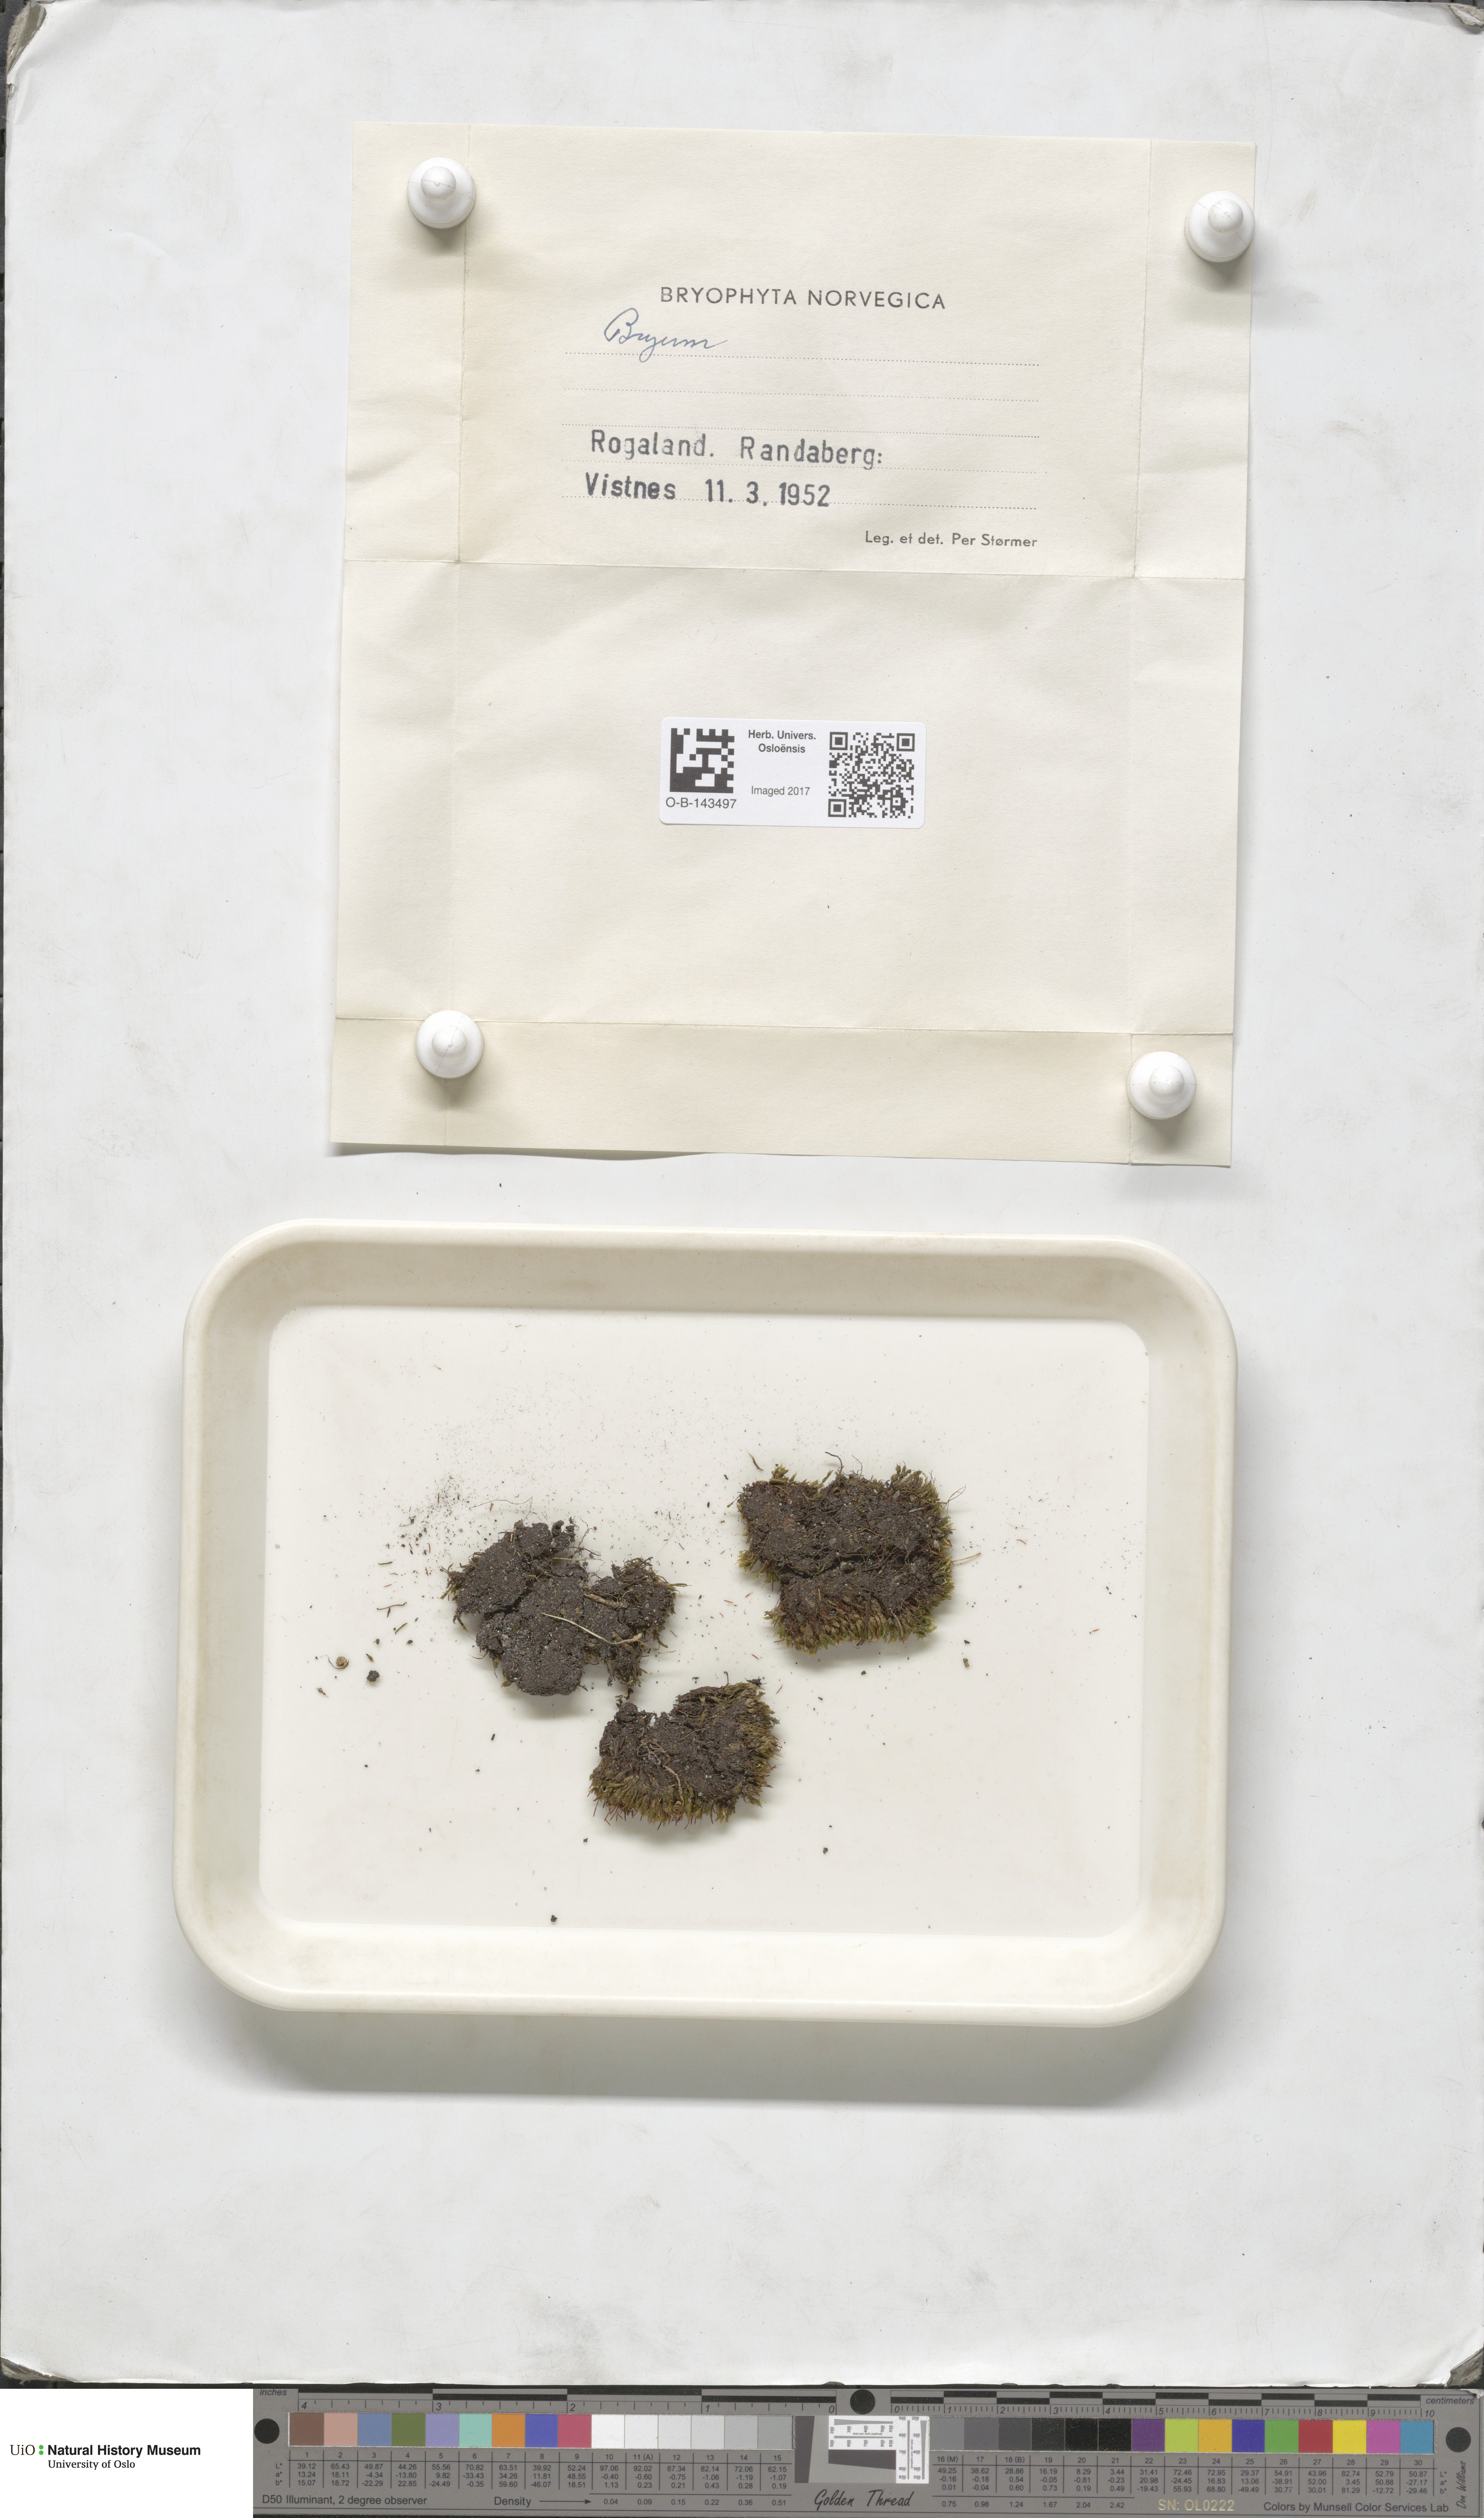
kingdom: Plantae
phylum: Bryophyta
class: Bryopsida
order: Bryales
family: Bryaceae
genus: Bryum
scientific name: Bryum
